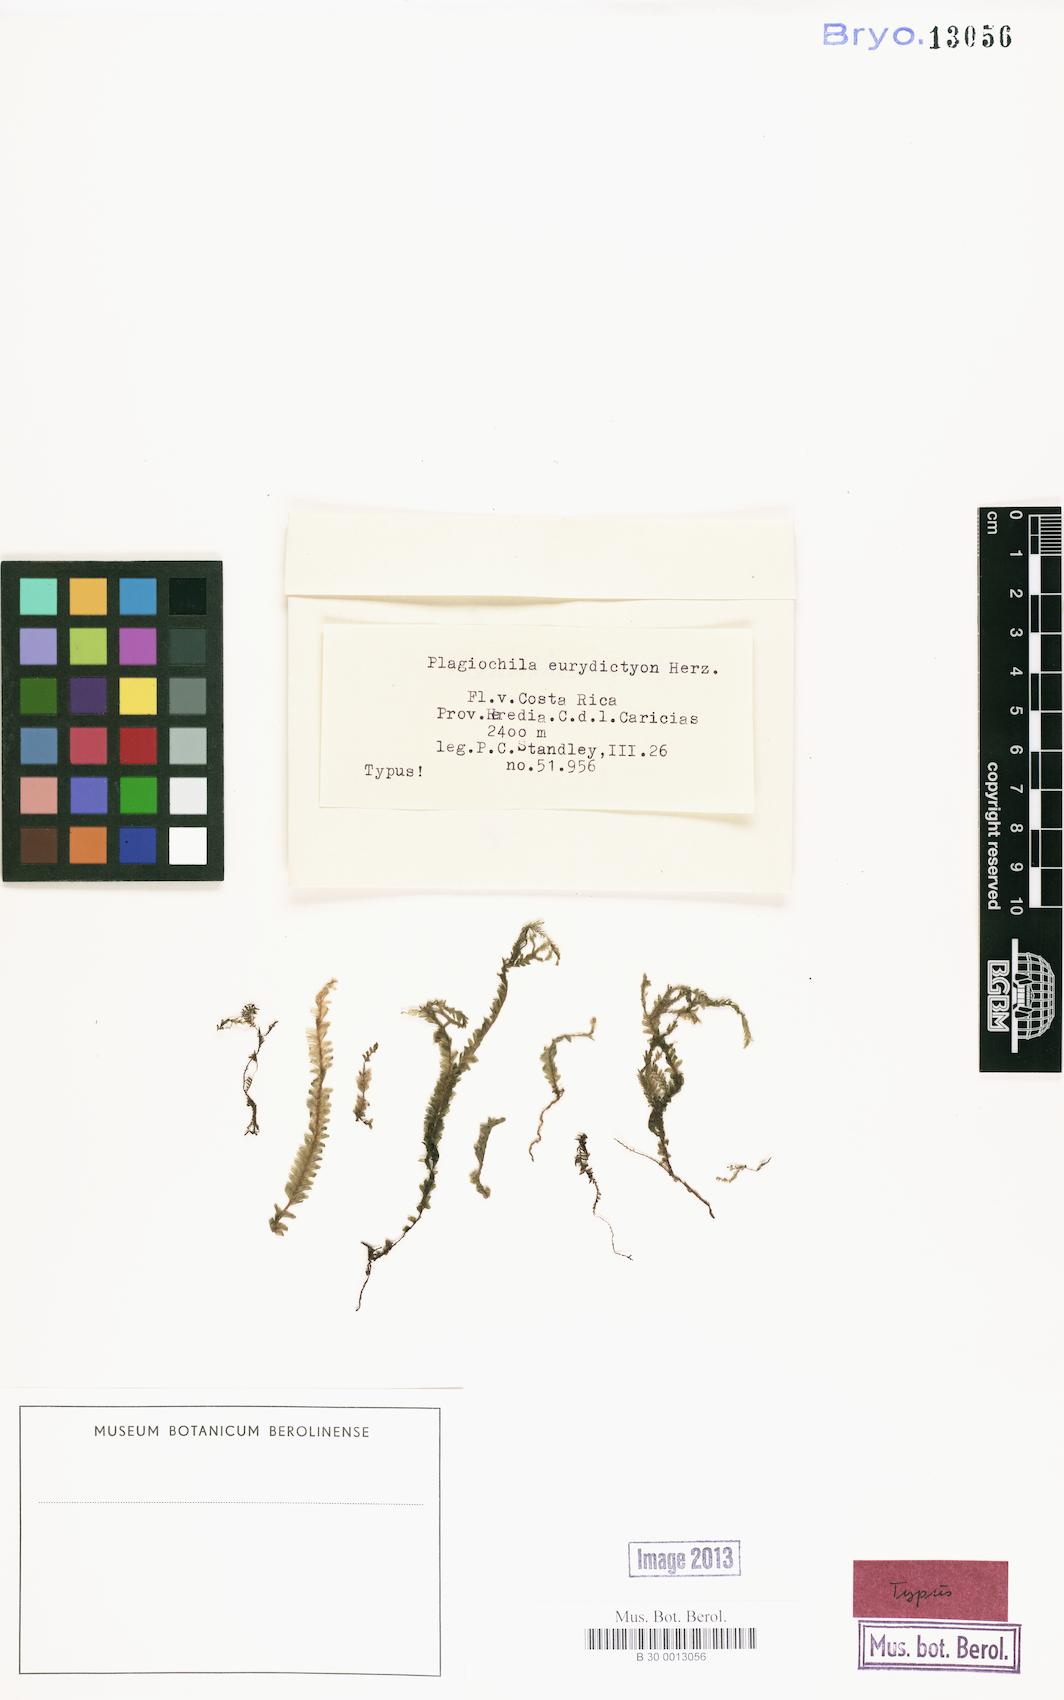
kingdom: Plantae
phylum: Marchantiophyta
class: Jungermanniopsida
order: Jungermanniales
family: Plagiochilaceae
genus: Plagiochila
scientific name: Plagiochila eurydictyon
